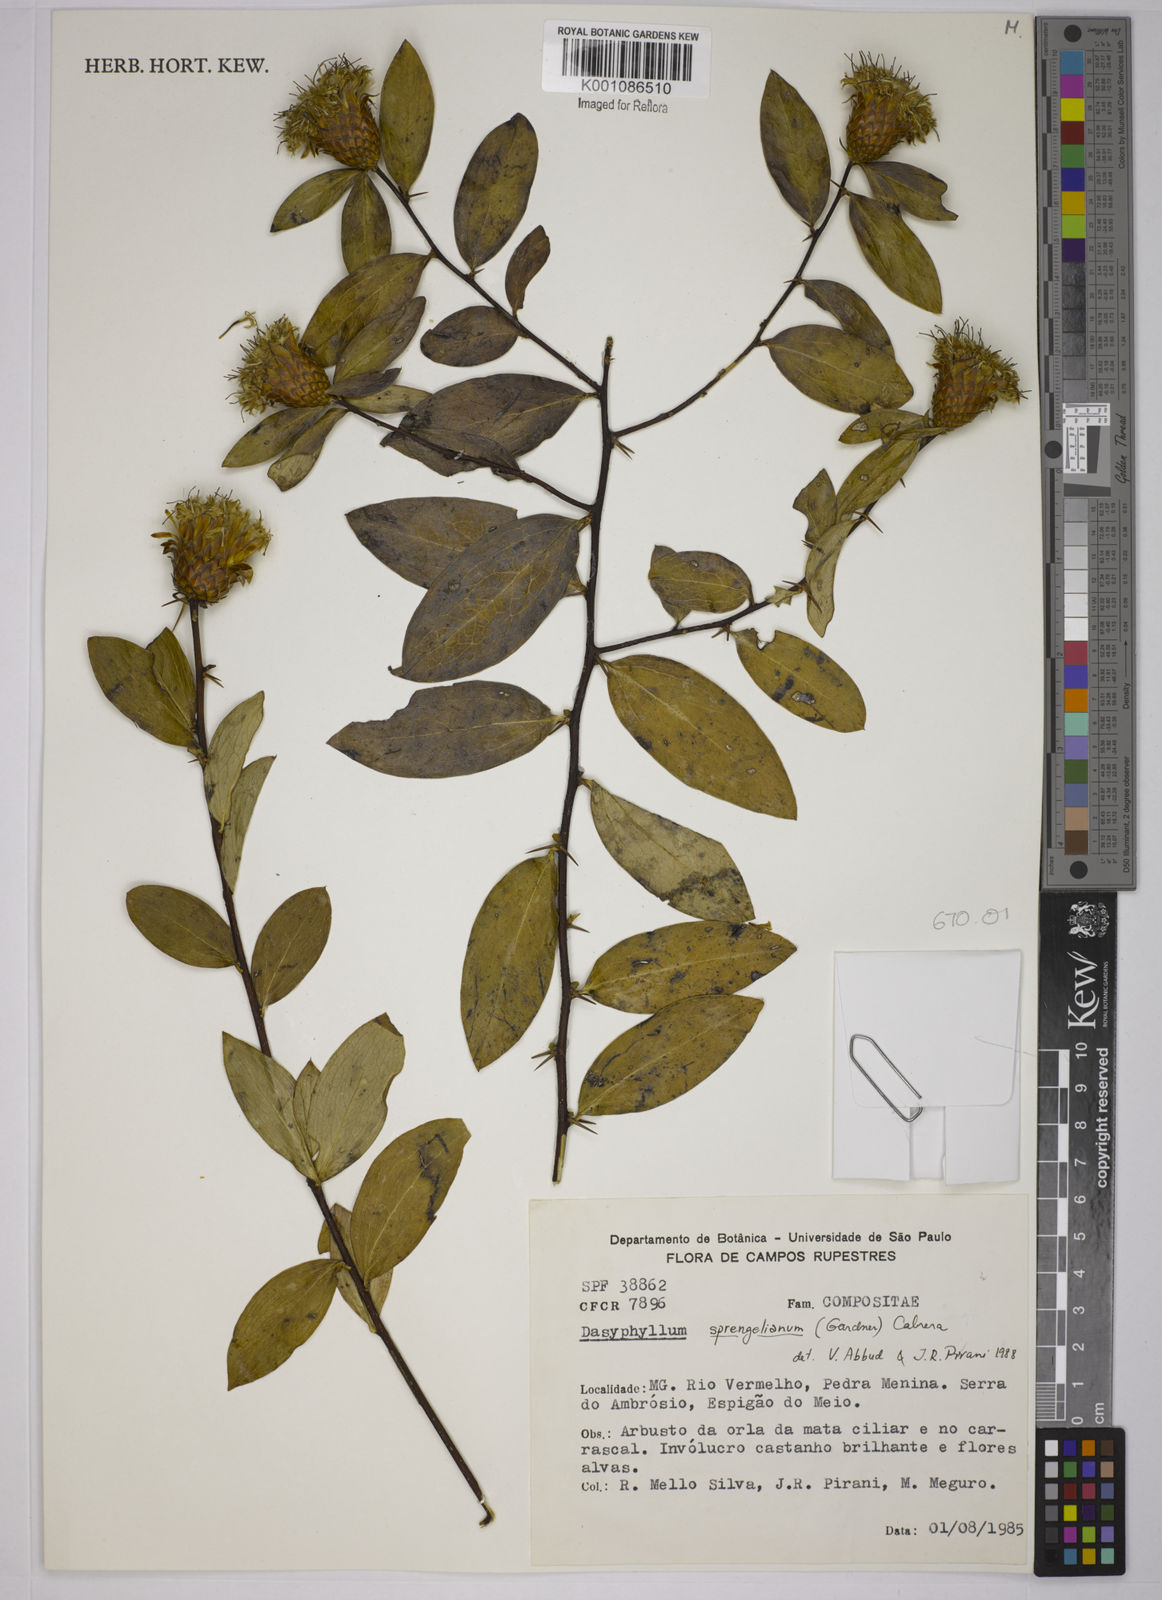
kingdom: Plantae
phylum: Tracheophyta
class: Magnoliopsida
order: Asterales
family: Asteraceae
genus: Dasyphyllum
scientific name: Dasyphyllum sprengelianum
